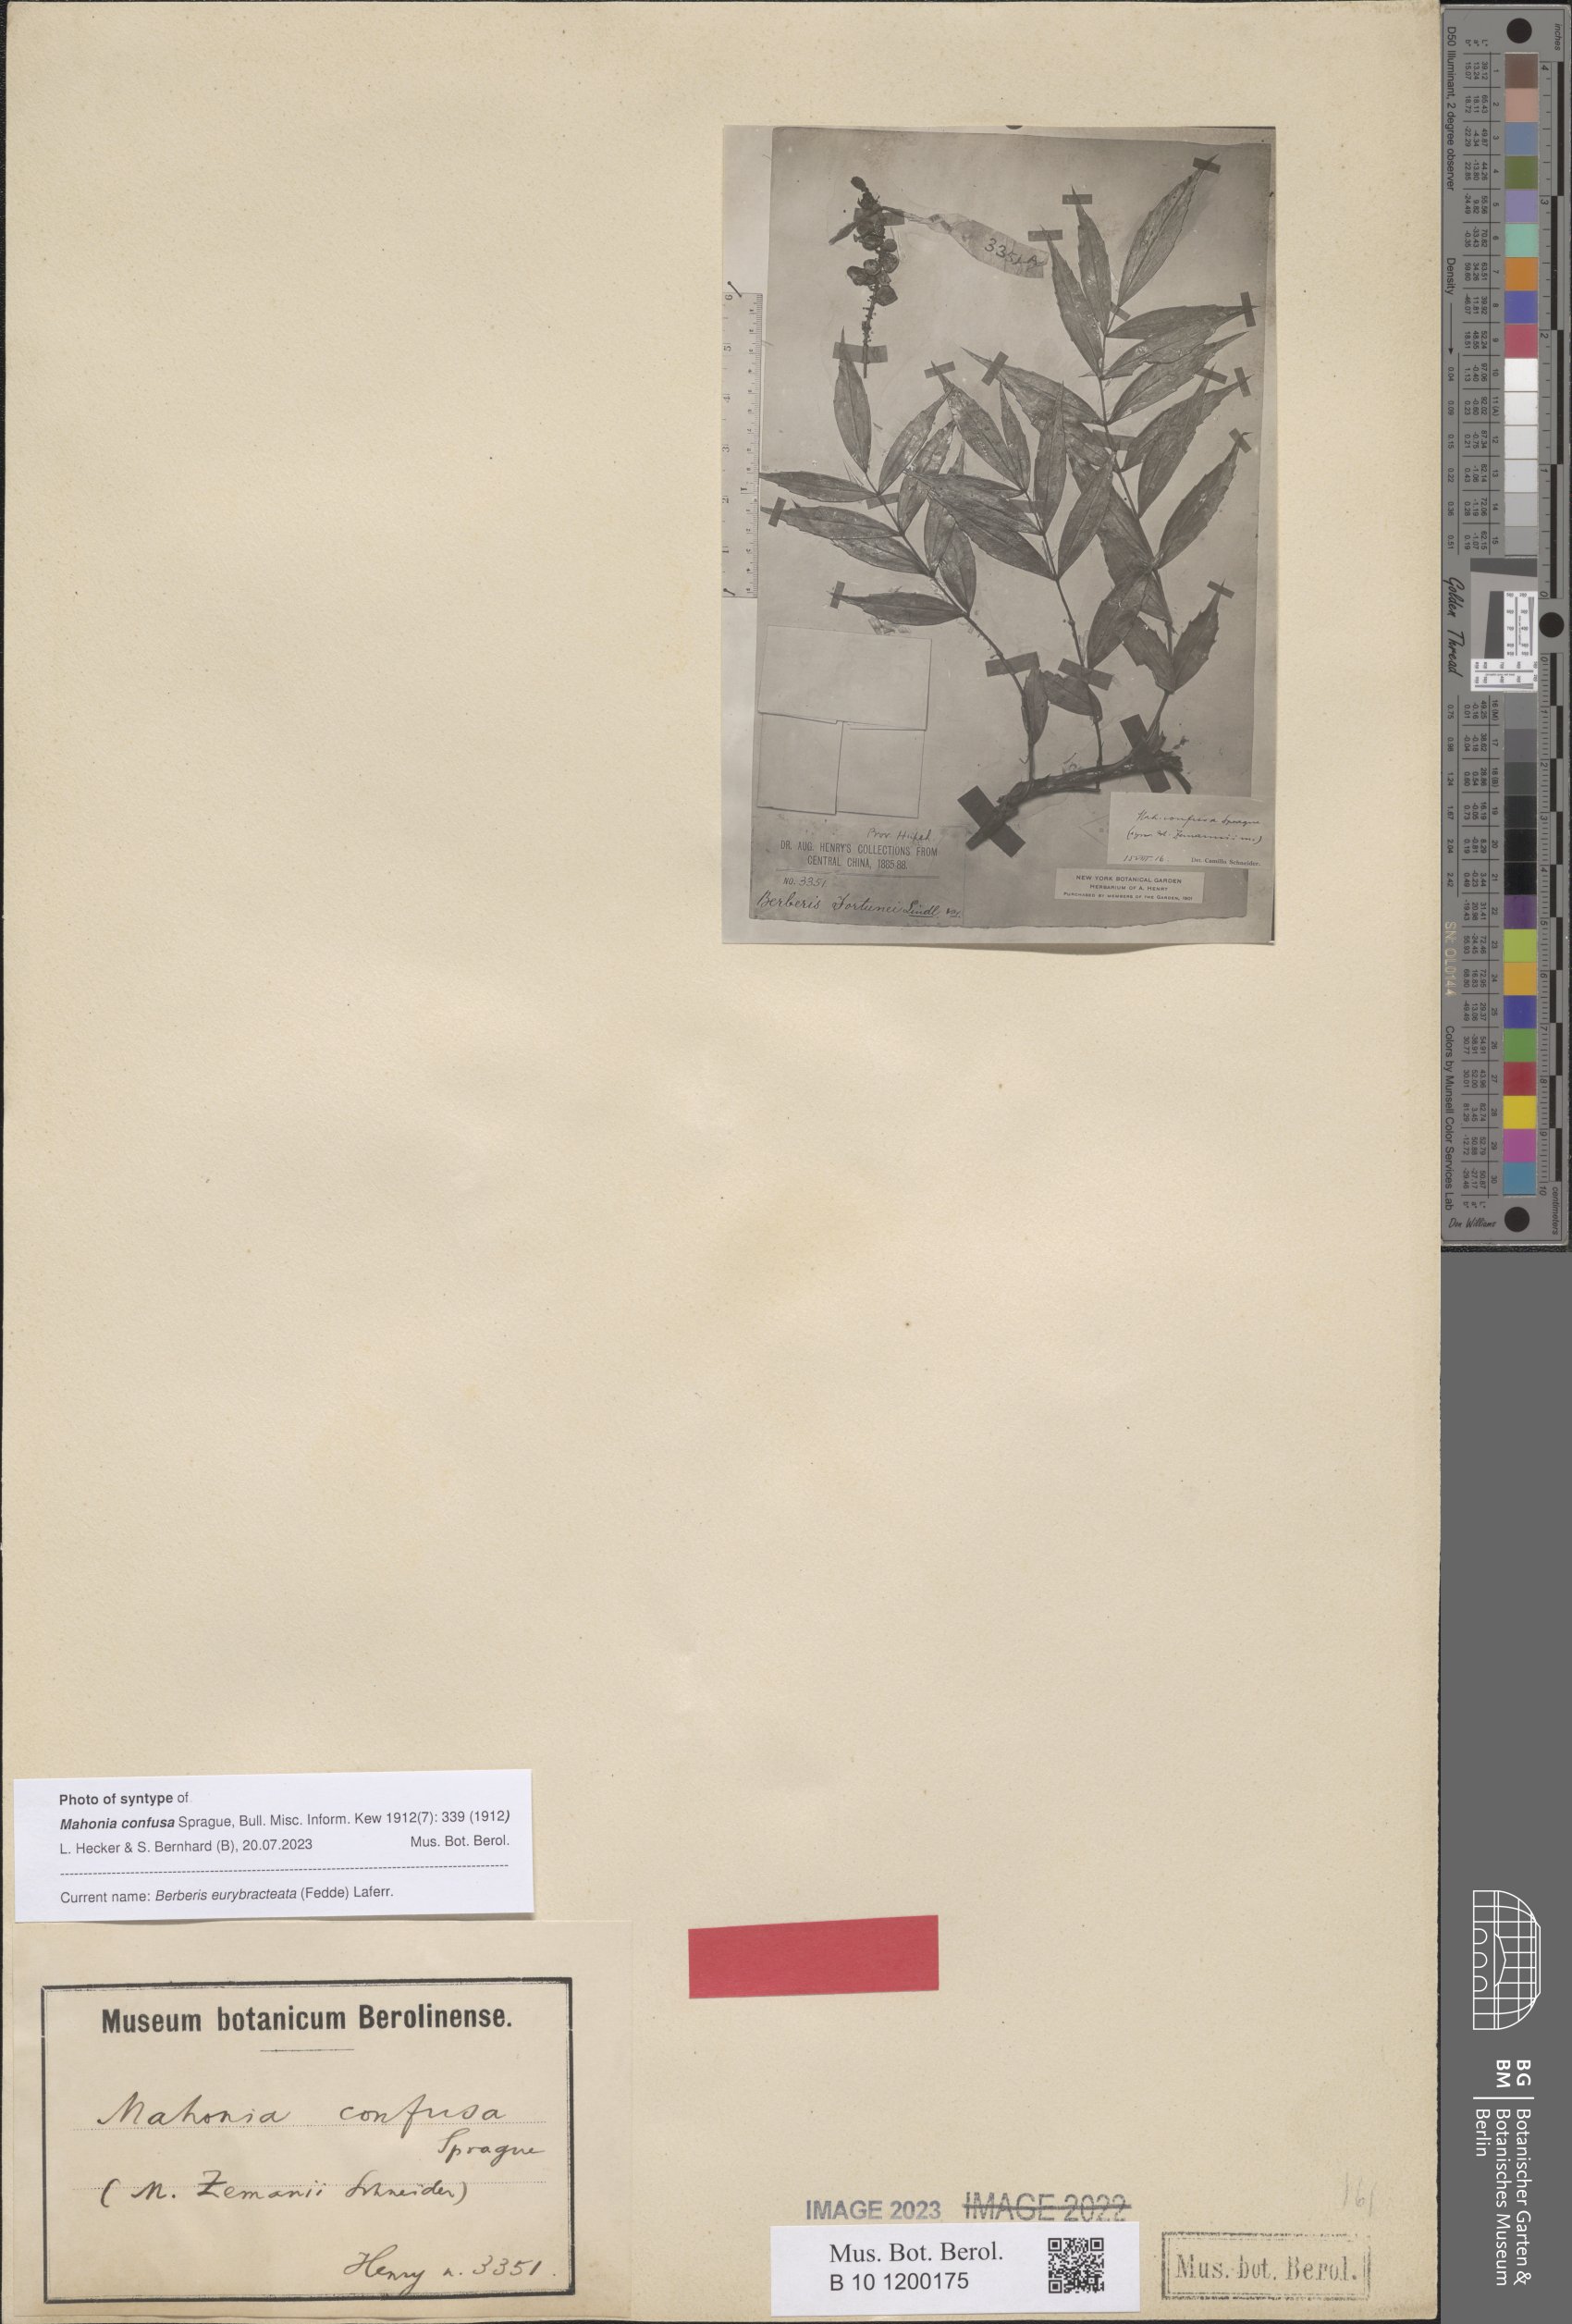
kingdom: Plantae
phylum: Tracheophyta
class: Magnoliopsida
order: Ranunculales
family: Berberidaceae
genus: Mahonia
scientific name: Mahonia eurybracteata
